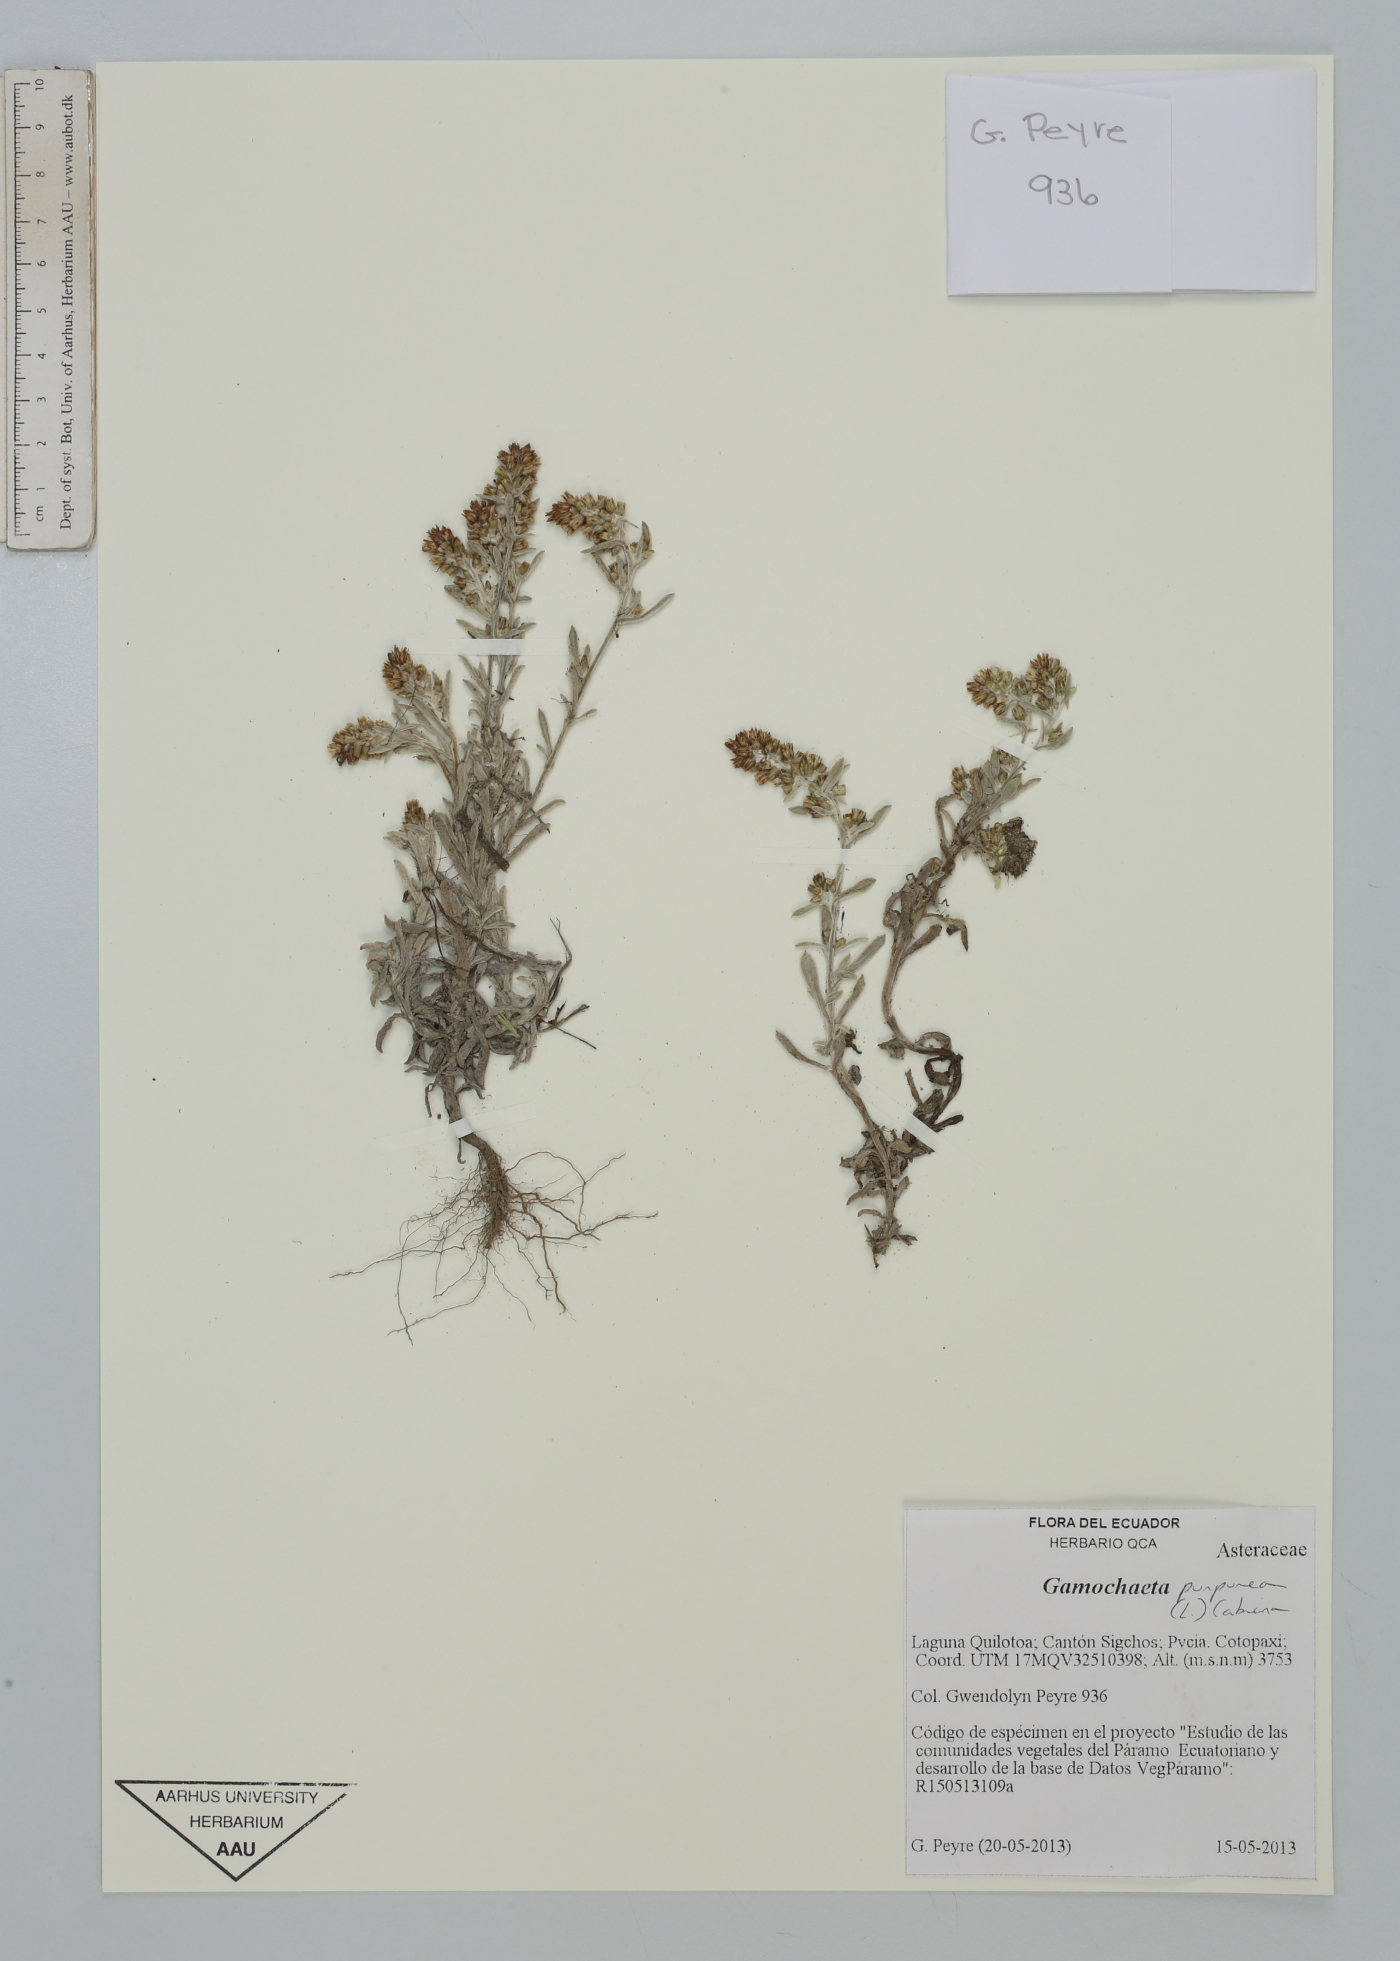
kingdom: Plantae
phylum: Tracheophyta
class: Magnoliopsida
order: Asterales
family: Asteraceae
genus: Gamochaeta
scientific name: Gamochaeta purpurea
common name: Purple cudweed
